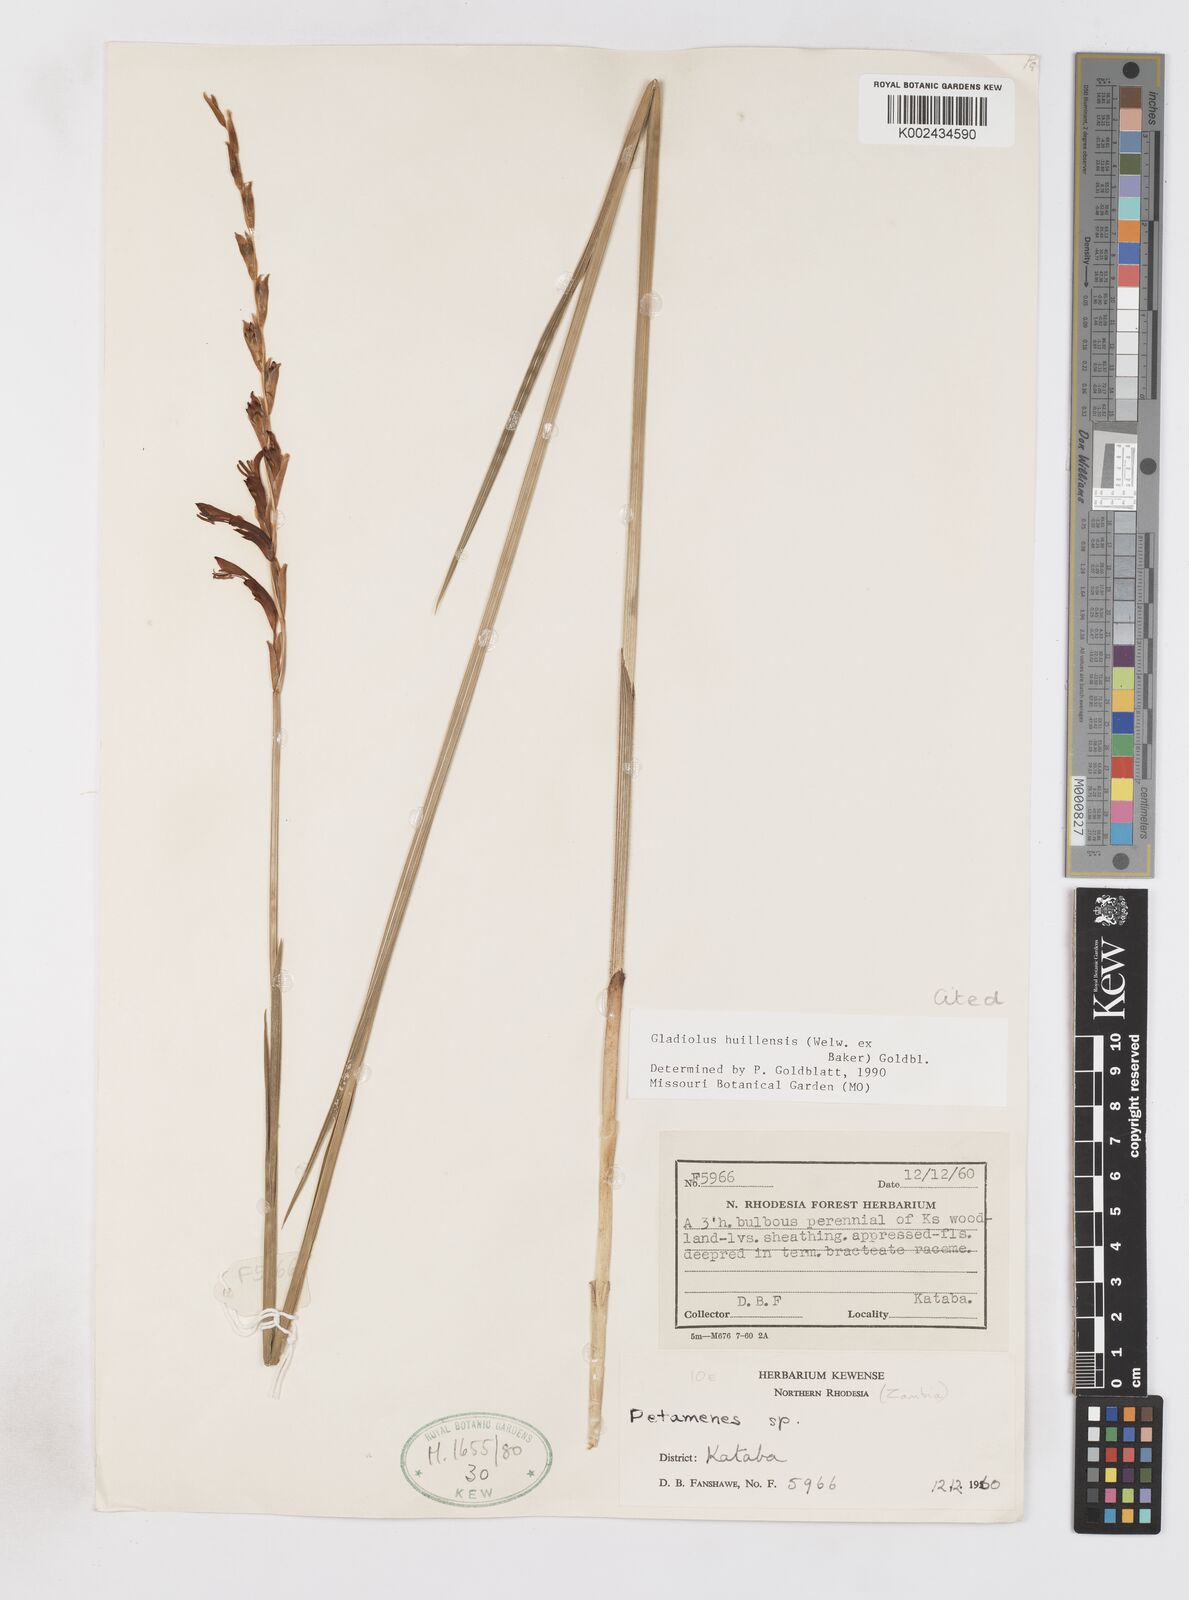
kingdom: Plantae
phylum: Tracheophyta
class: Liliopsida
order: Asparagales
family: Iridaceae
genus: Gladiolus
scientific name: Gladiolus huillensis
